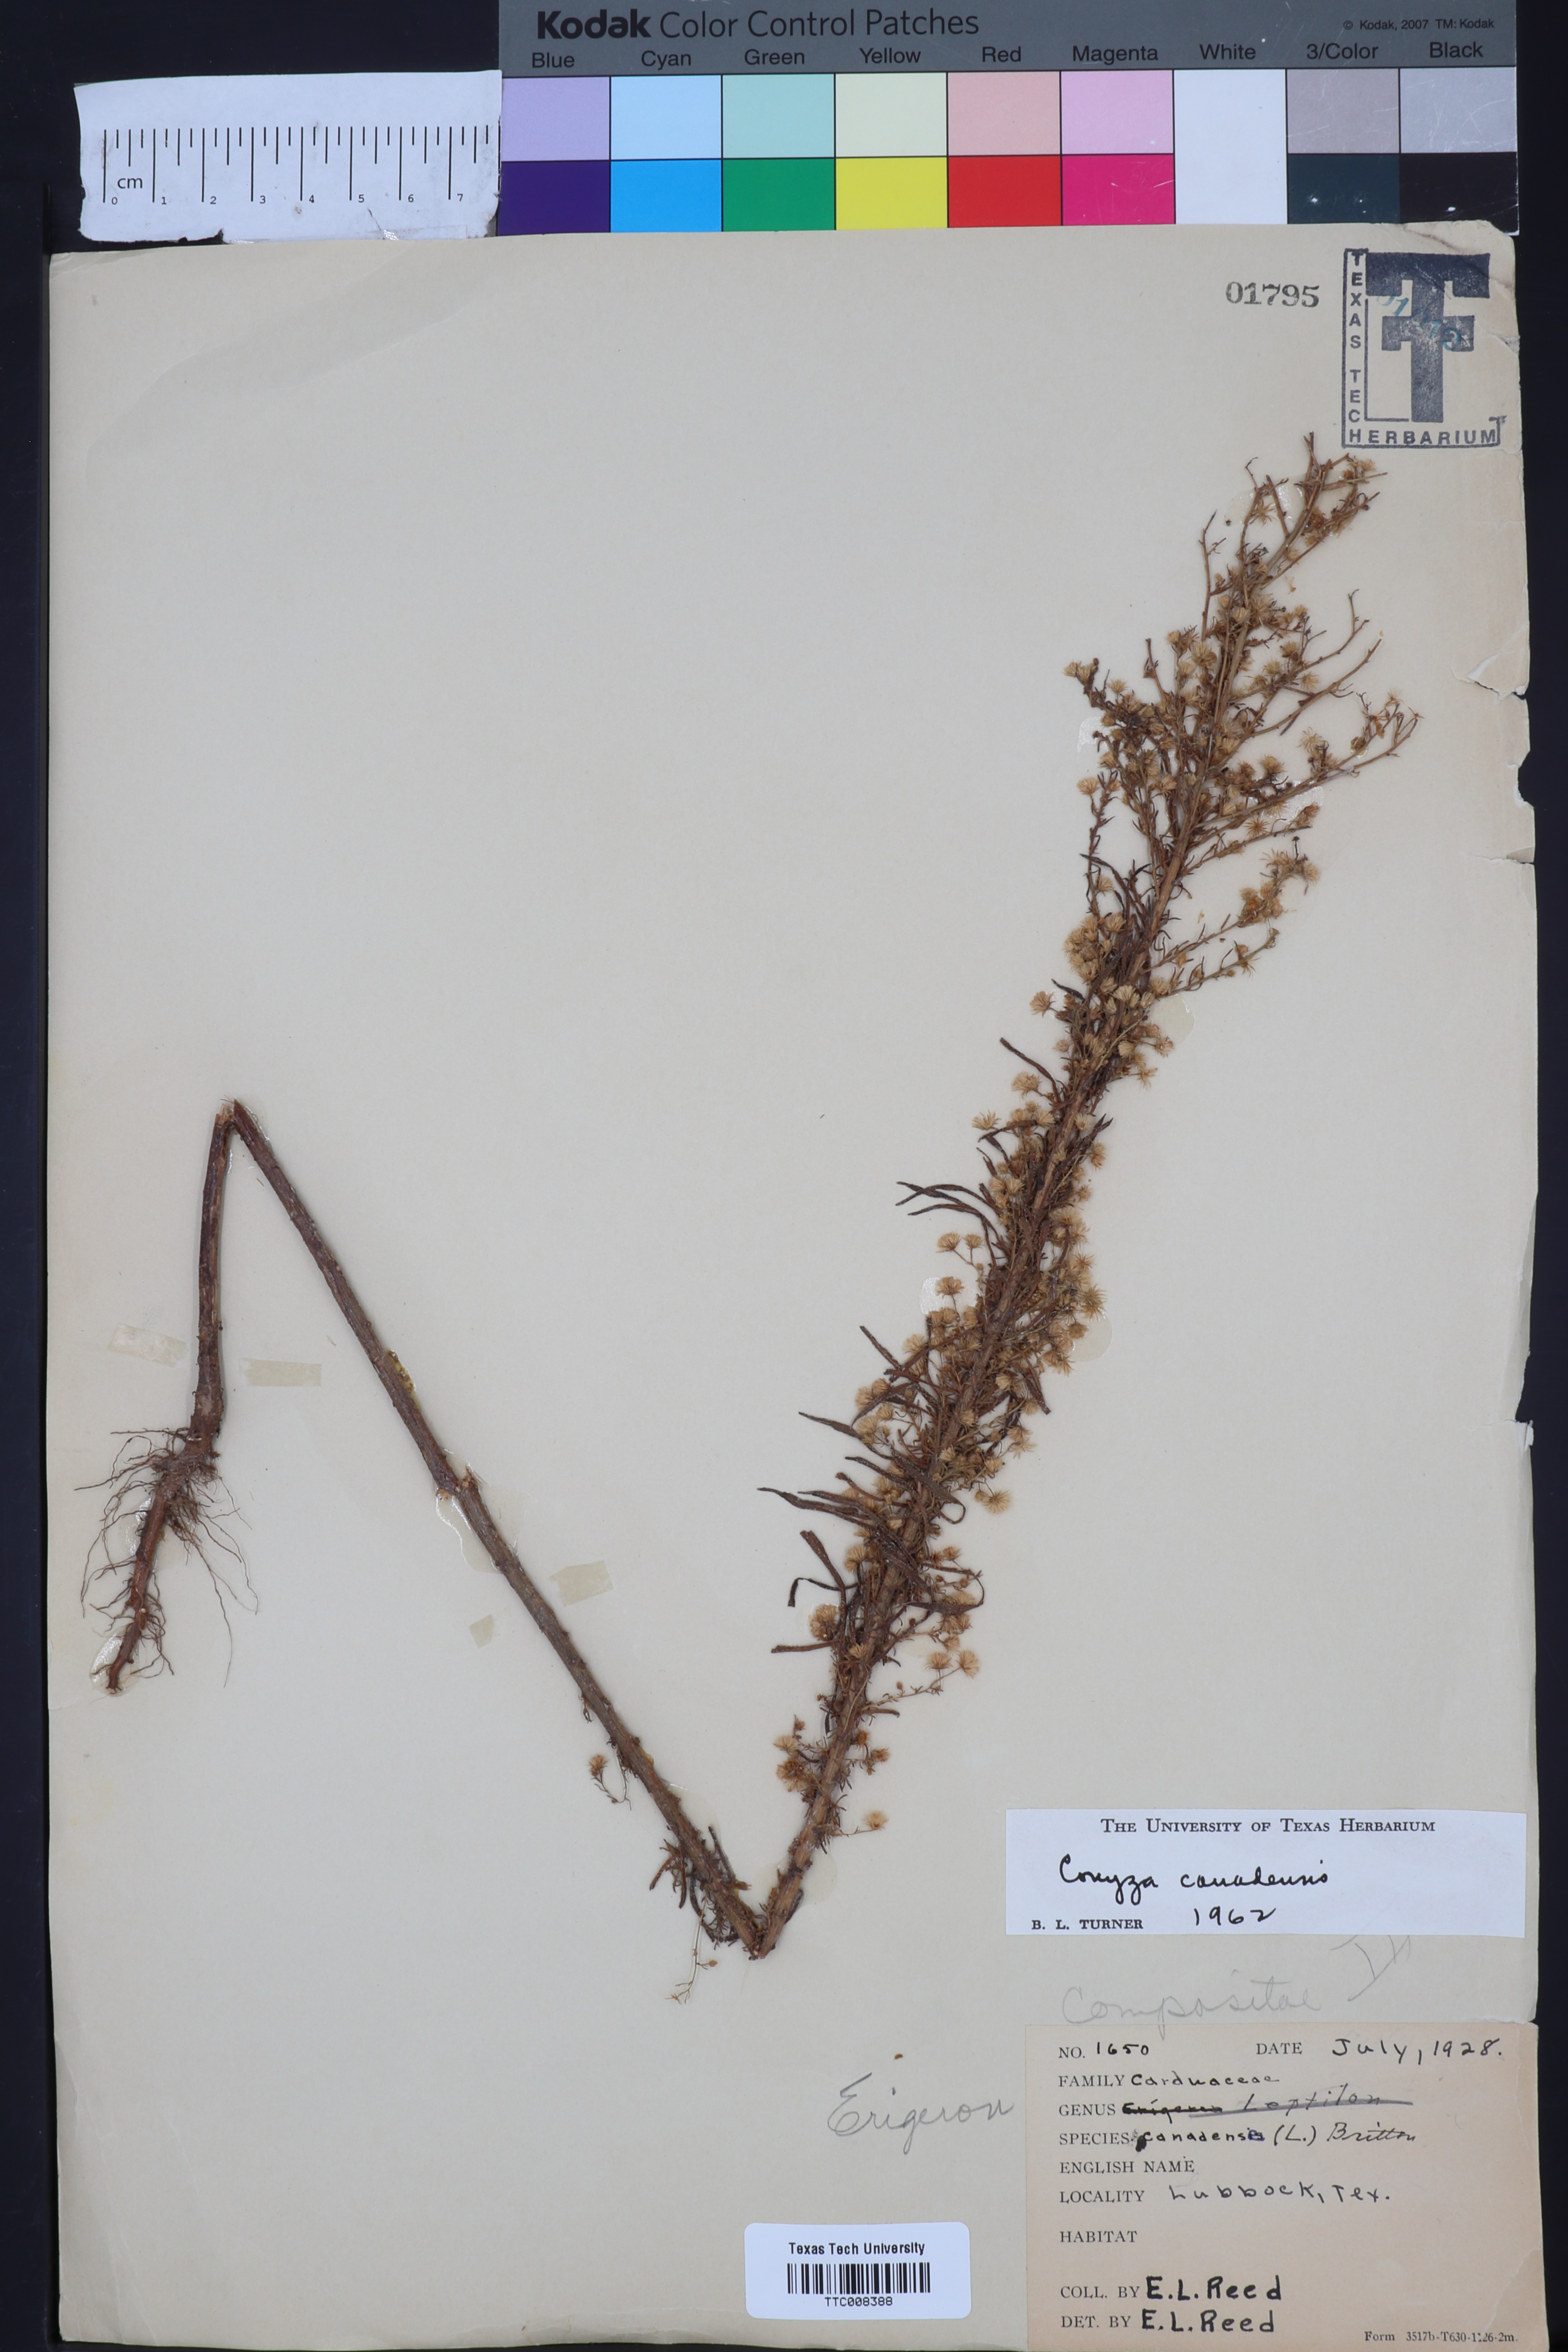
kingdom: Plantae
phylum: Tracheophyta
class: Magnoliopsida
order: Asterales
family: Asteraceae
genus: Erigeron
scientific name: Erigeron canadensis
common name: Canadian fleabane
